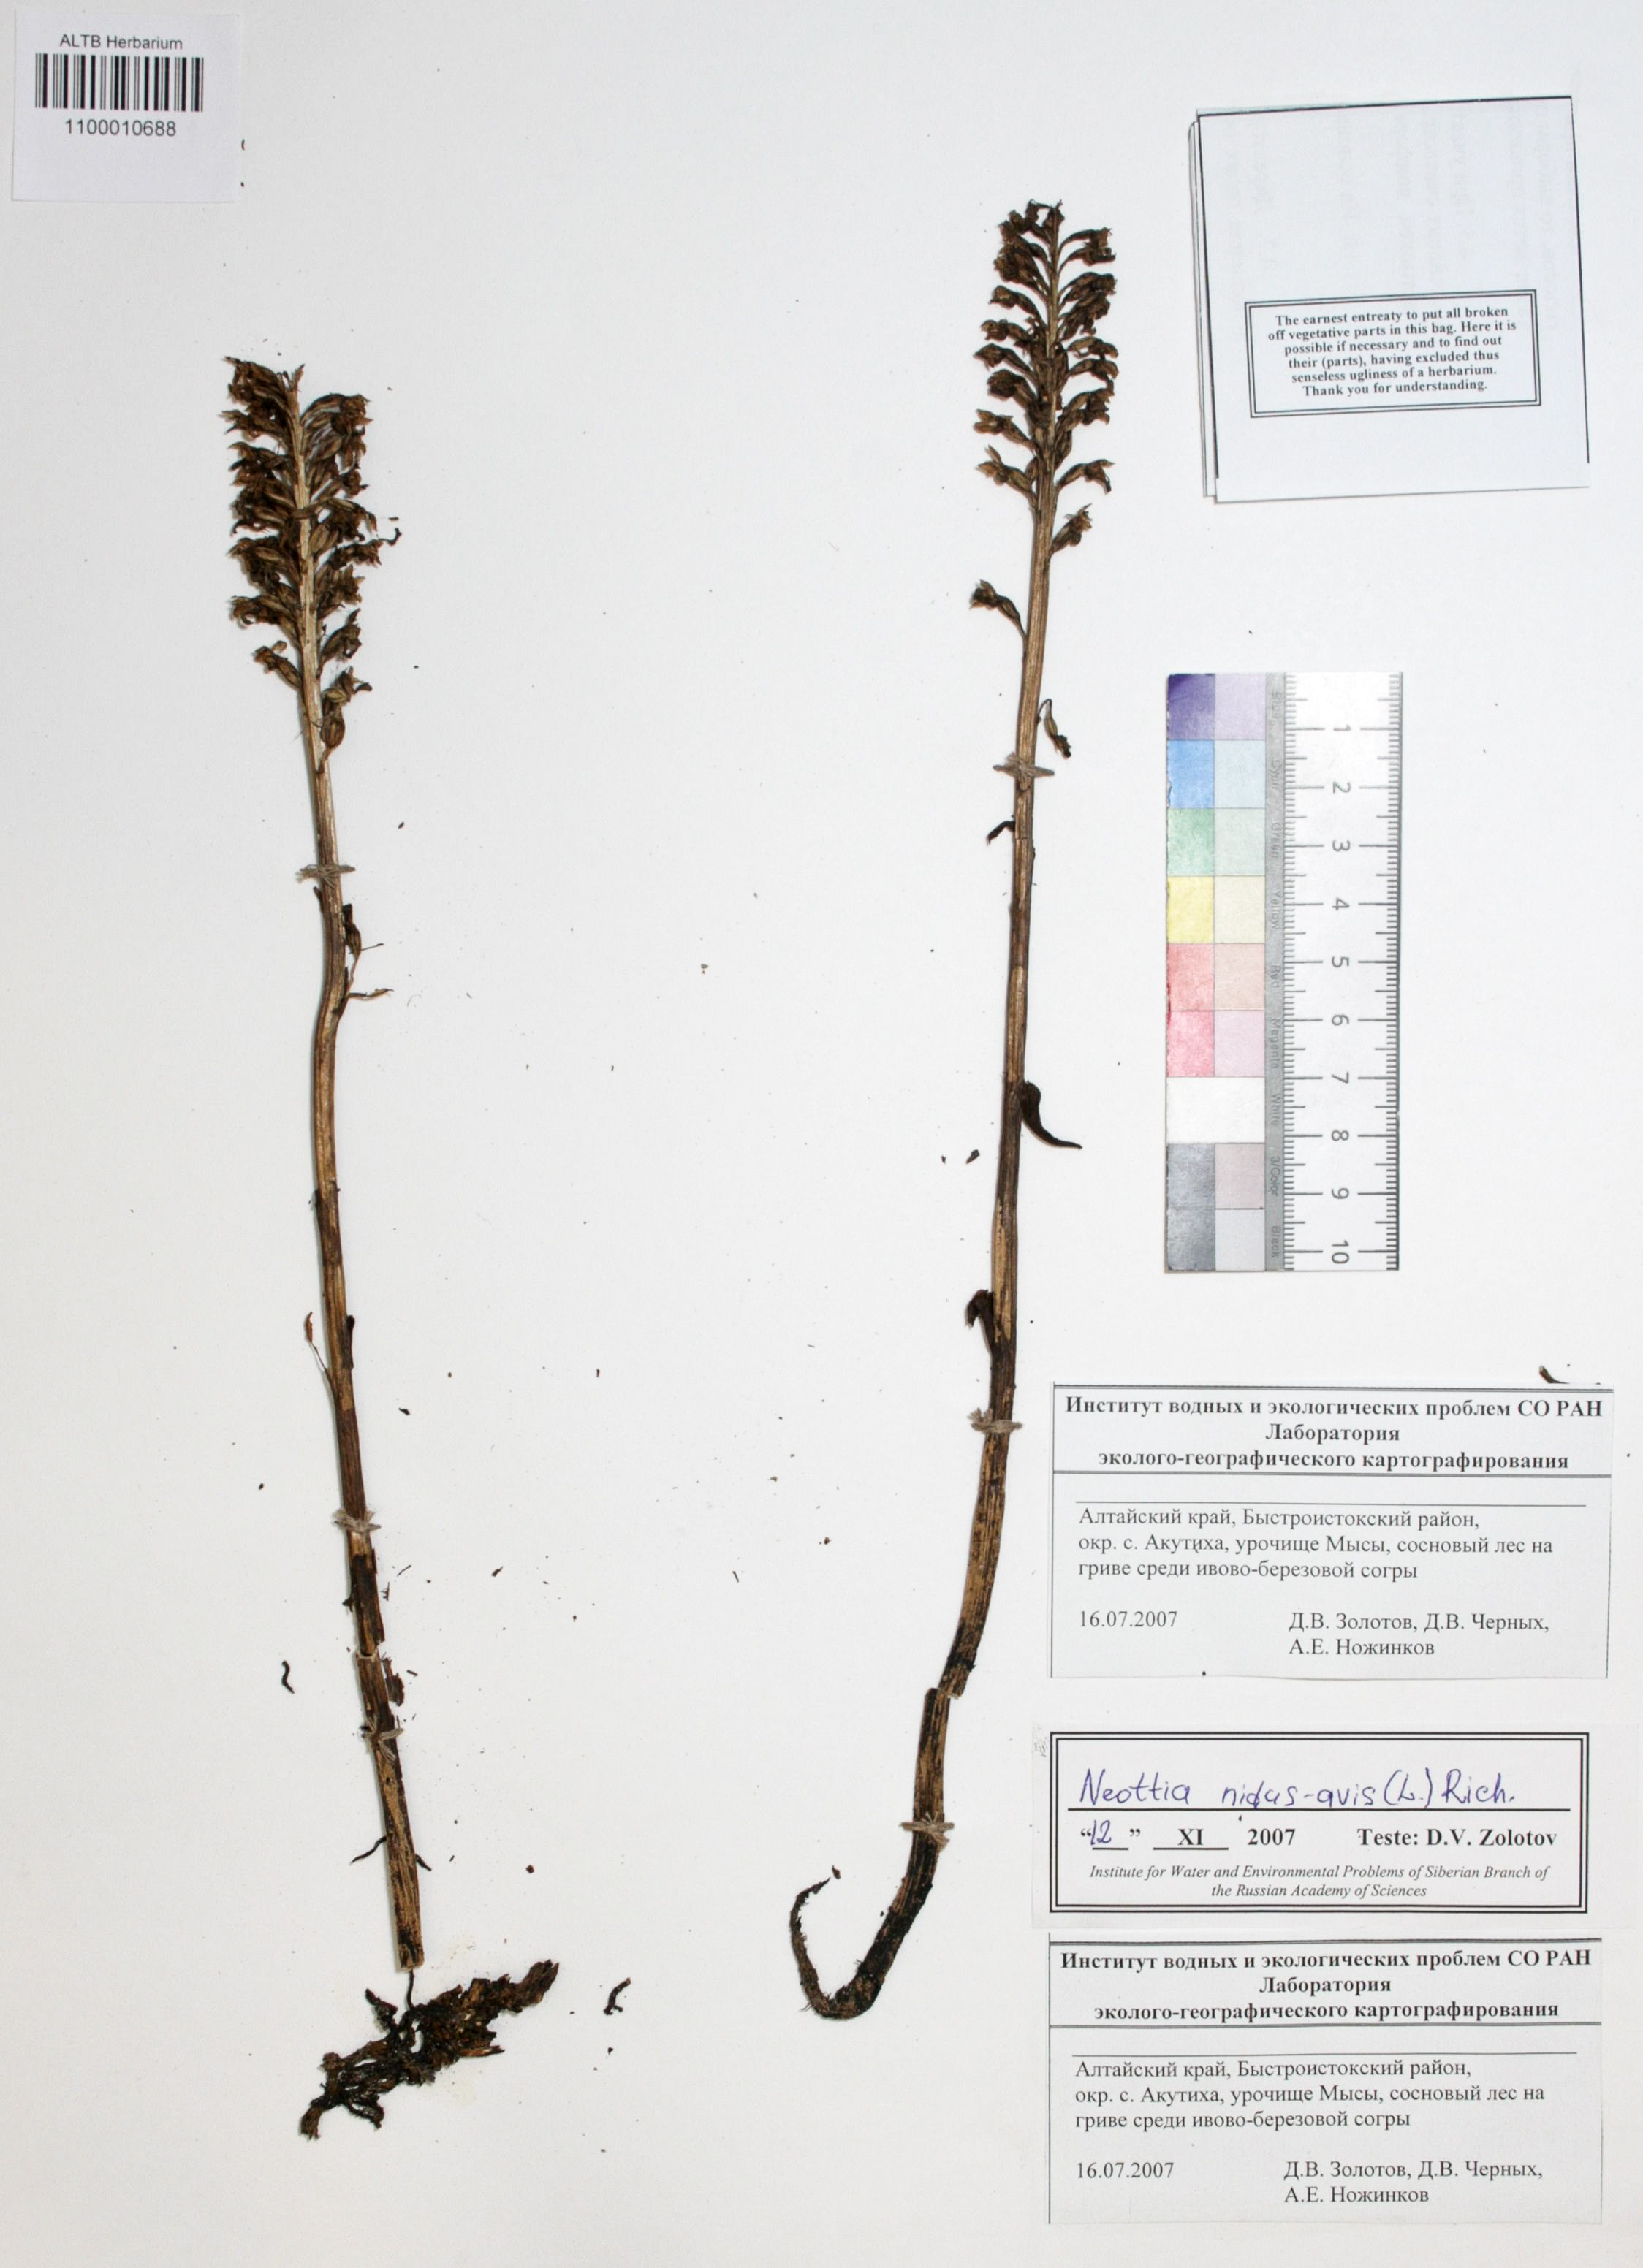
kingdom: Plantae
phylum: Tracheophyta
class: Liliopsida
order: Asparagales
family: Orchidaceae
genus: Neottia
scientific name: Neottia nidus-avis
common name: Bird's-nest orchid
